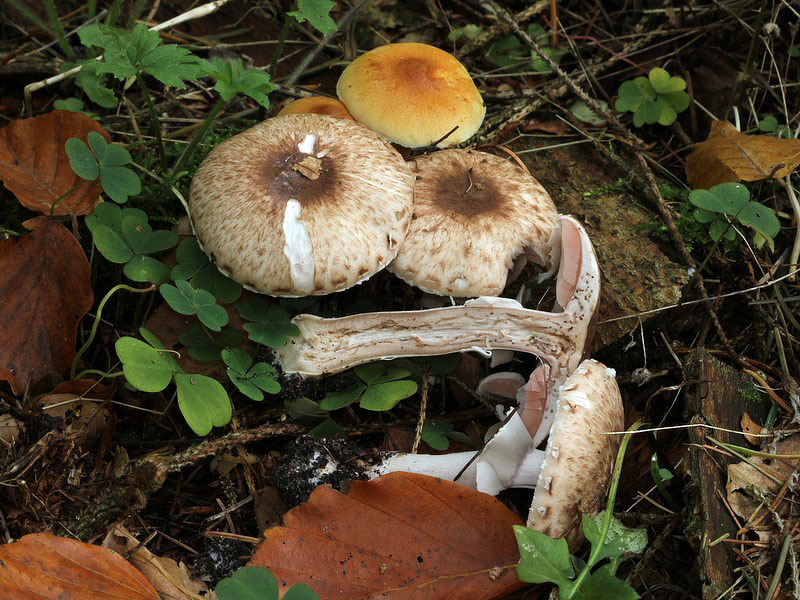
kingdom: Fungi
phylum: Basidiomycota
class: Agaricomycetes
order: Agaricales
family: Agaricaceae
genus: Agaricus
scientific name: Agaricus impudicus
